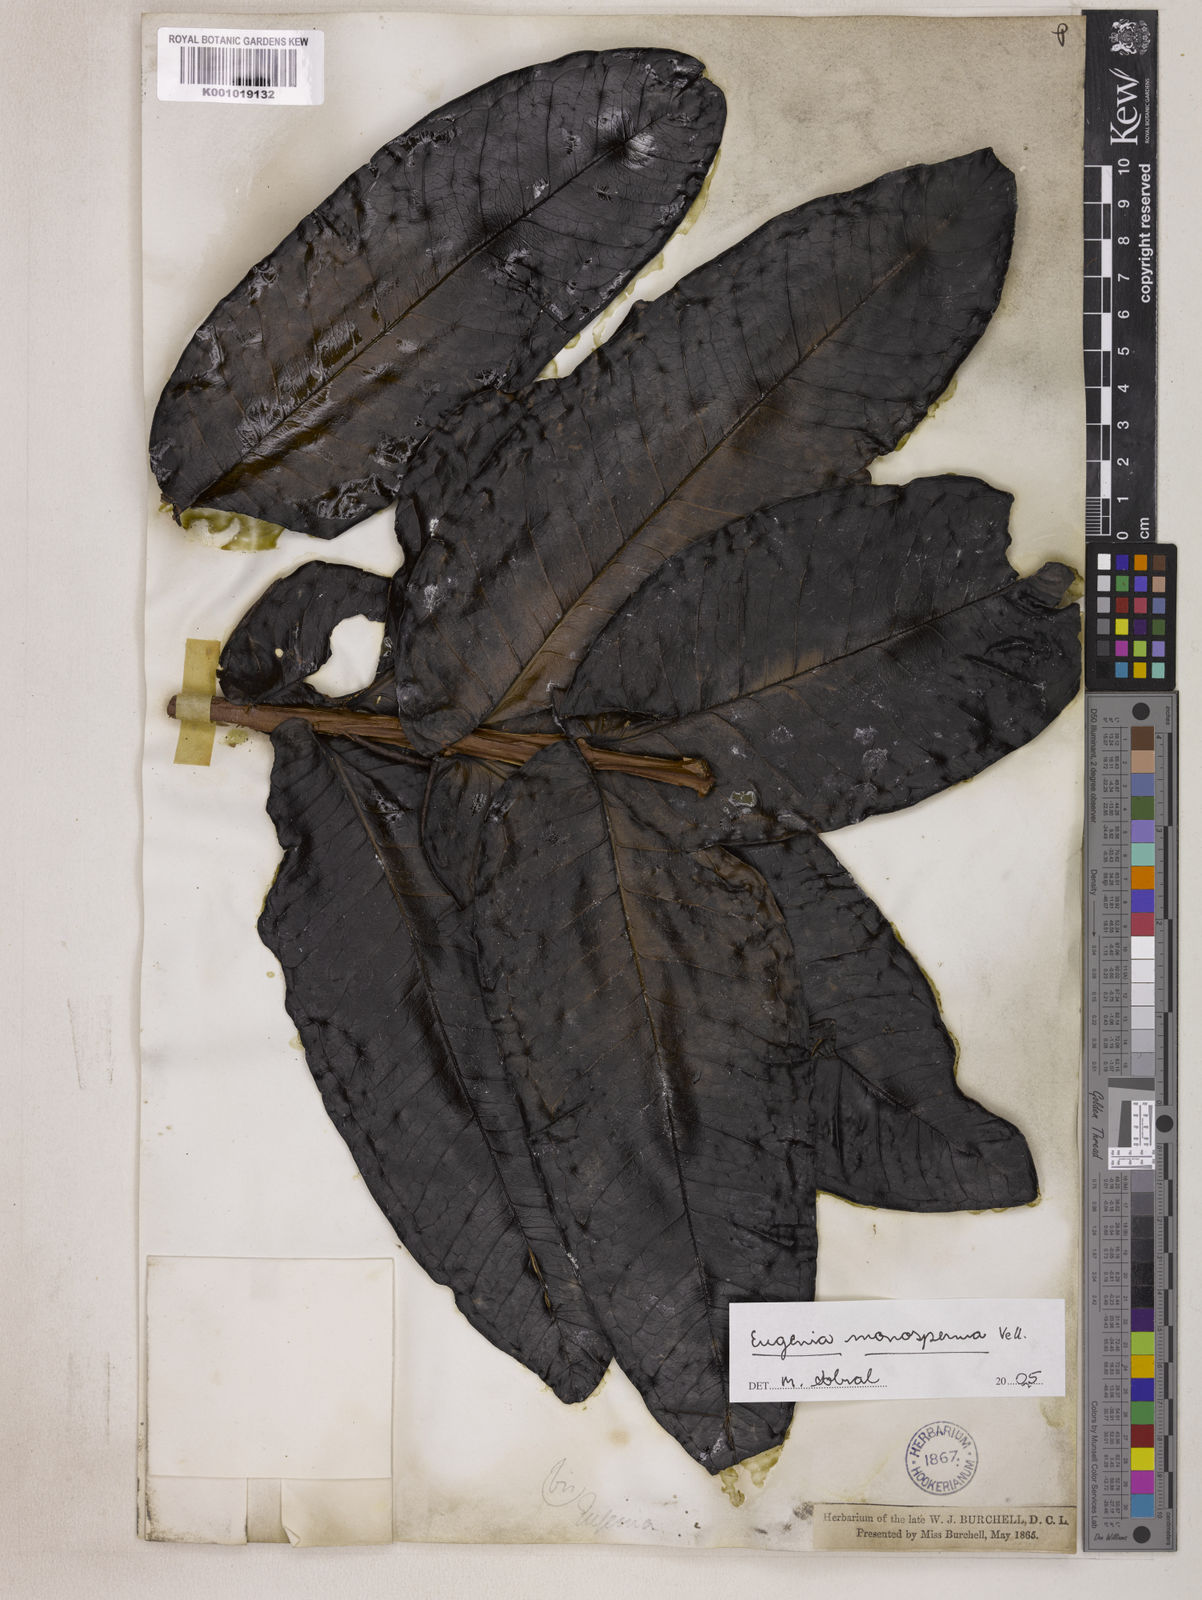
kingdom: Plantae
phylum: Tracheophyta
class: Magnoliopsida
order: Myrtales
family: Myrtaceae
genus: Eugenia
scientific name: Eugenia monosperma
